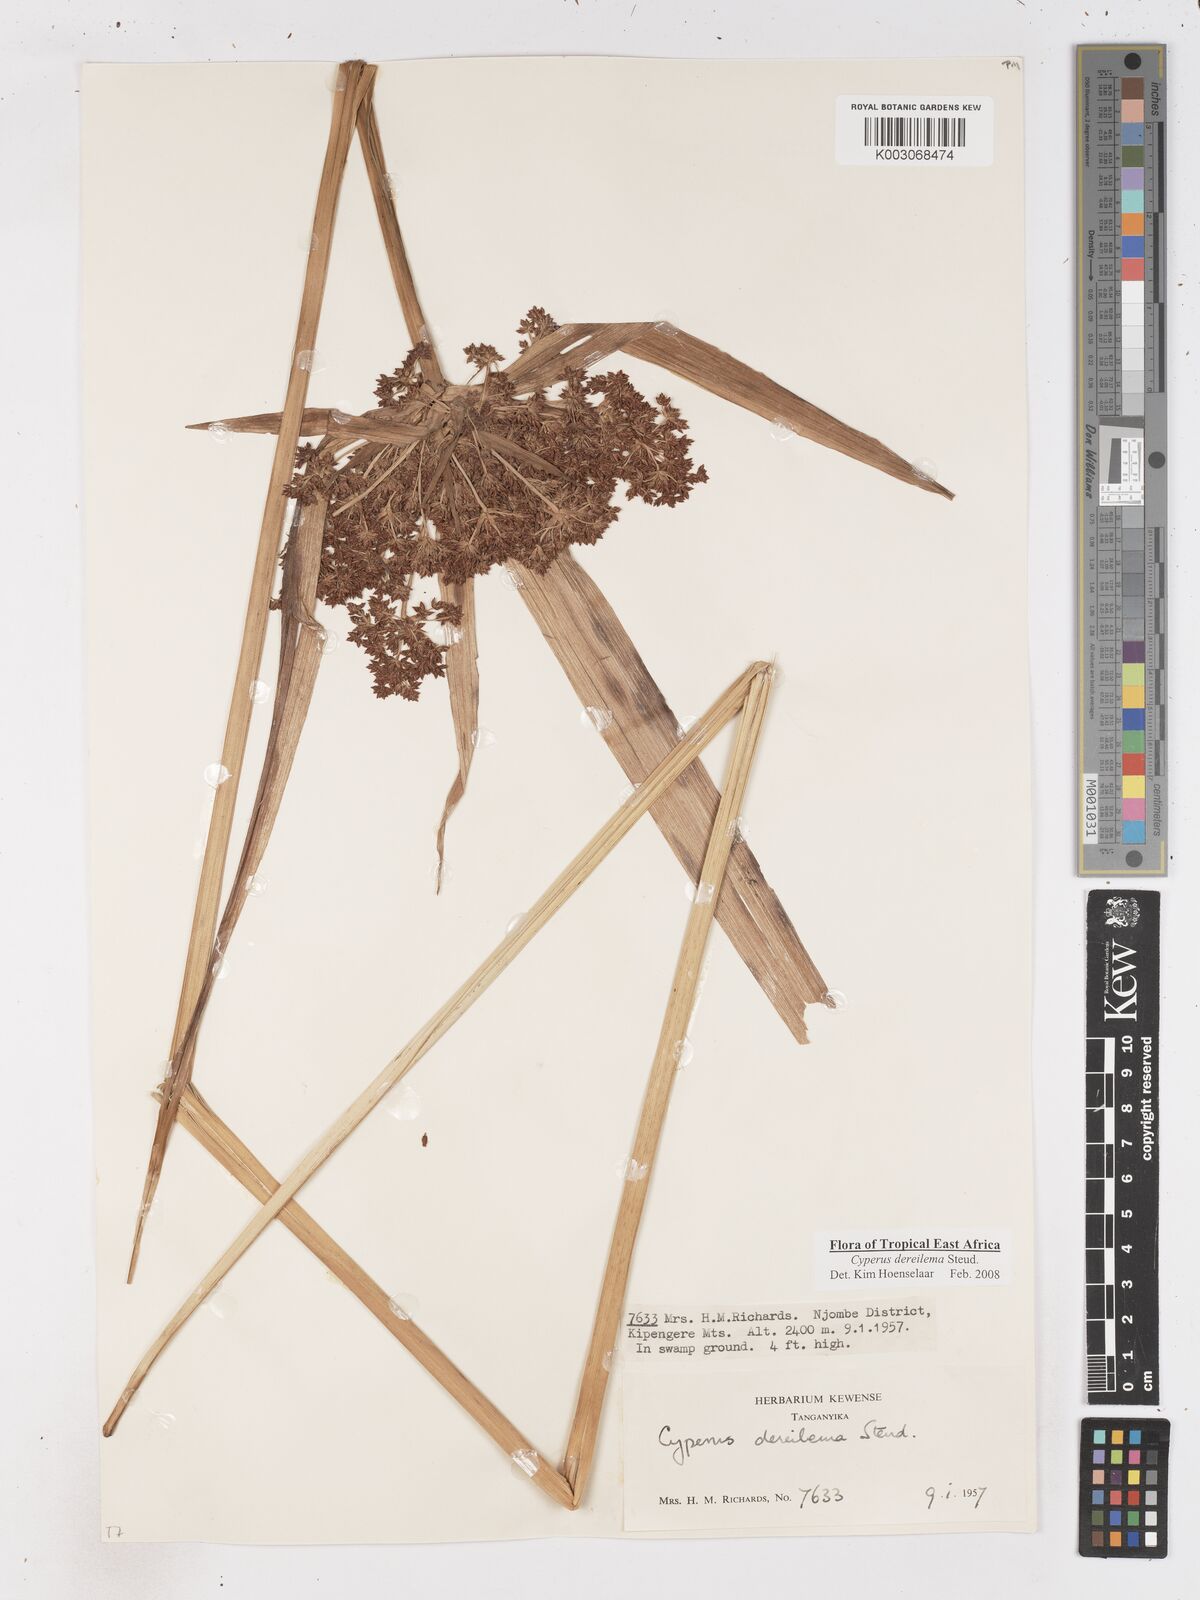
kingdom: Plantae
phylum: Tracheophyta
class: Liliopsida
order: Poales
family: Cyperaceae
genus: Cyperus
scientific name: Cyperus derreilema
